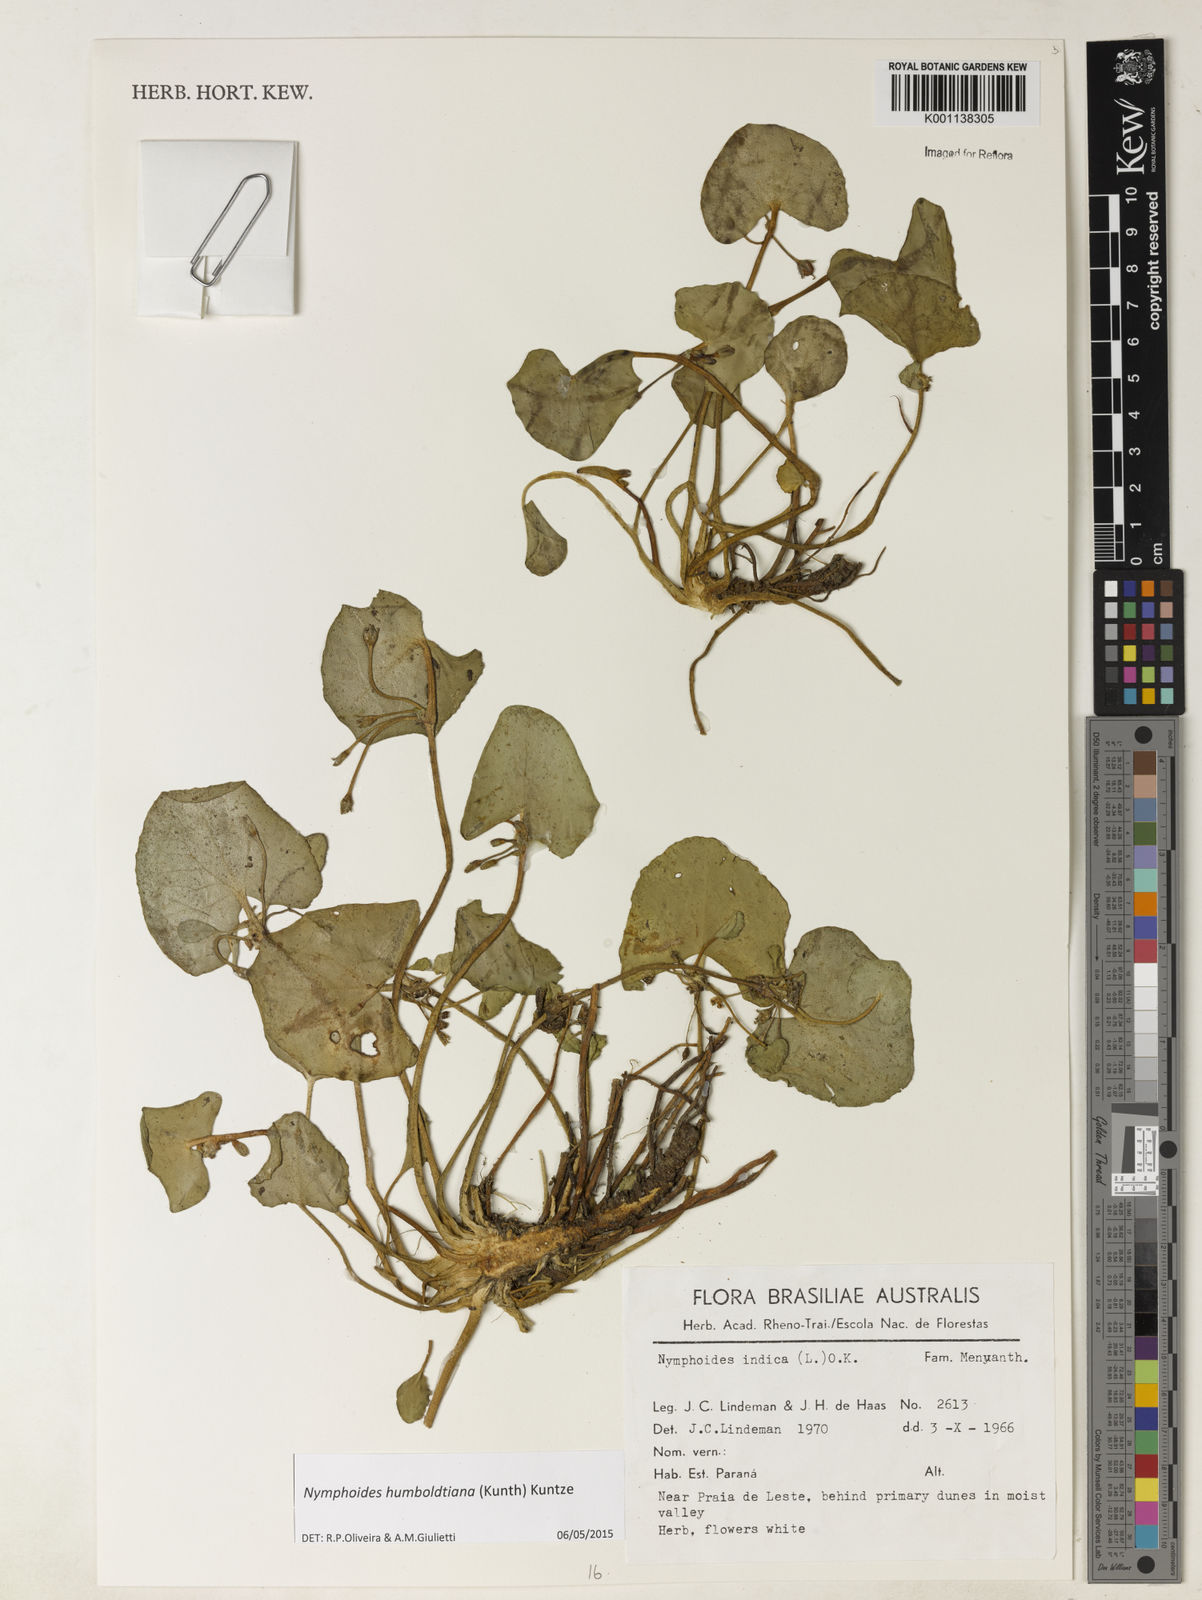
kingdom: Plantae
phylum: Tracheophyta
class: Magnoliopsida
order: Asterales
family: Menyanthaceae
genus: Nymphoides
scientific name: Nymphoides indica
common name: Water-snowflake
